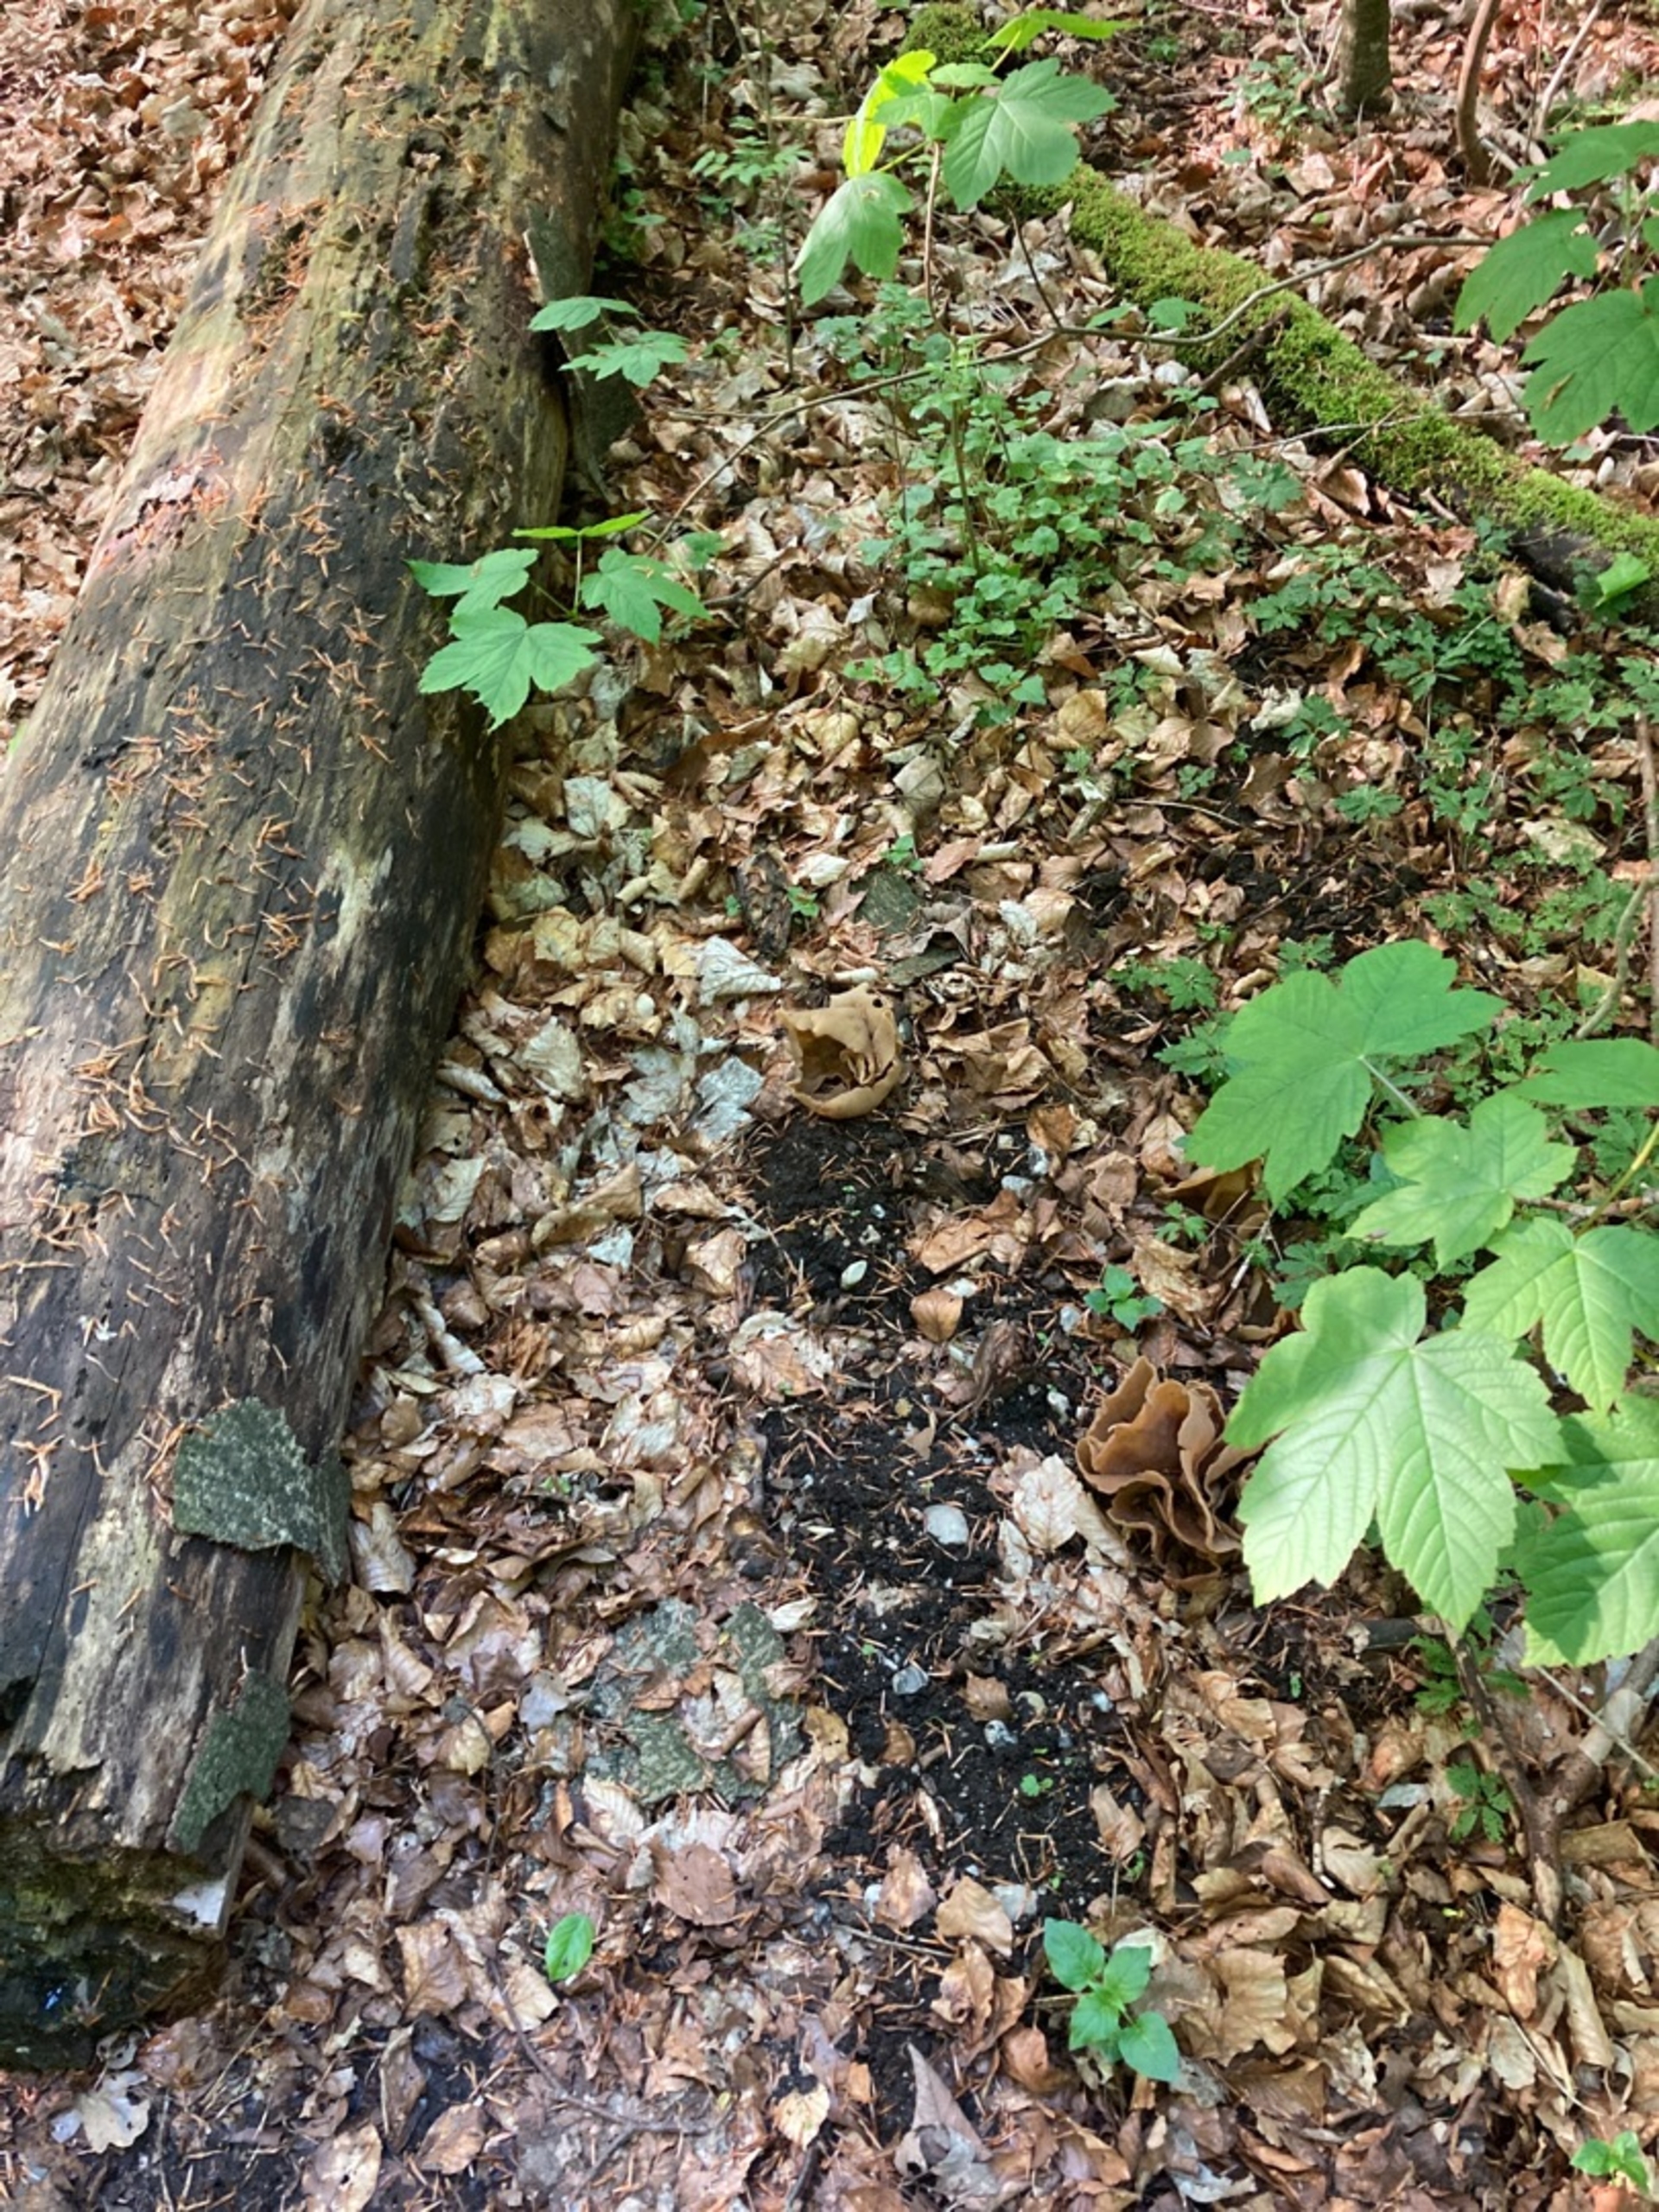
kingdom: Fungi
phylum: Ascomycota
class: Pezizomycetes
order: Pezizales
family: Pezizaceae
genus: Peziza
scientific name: Peziza
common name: Bægersvamp
